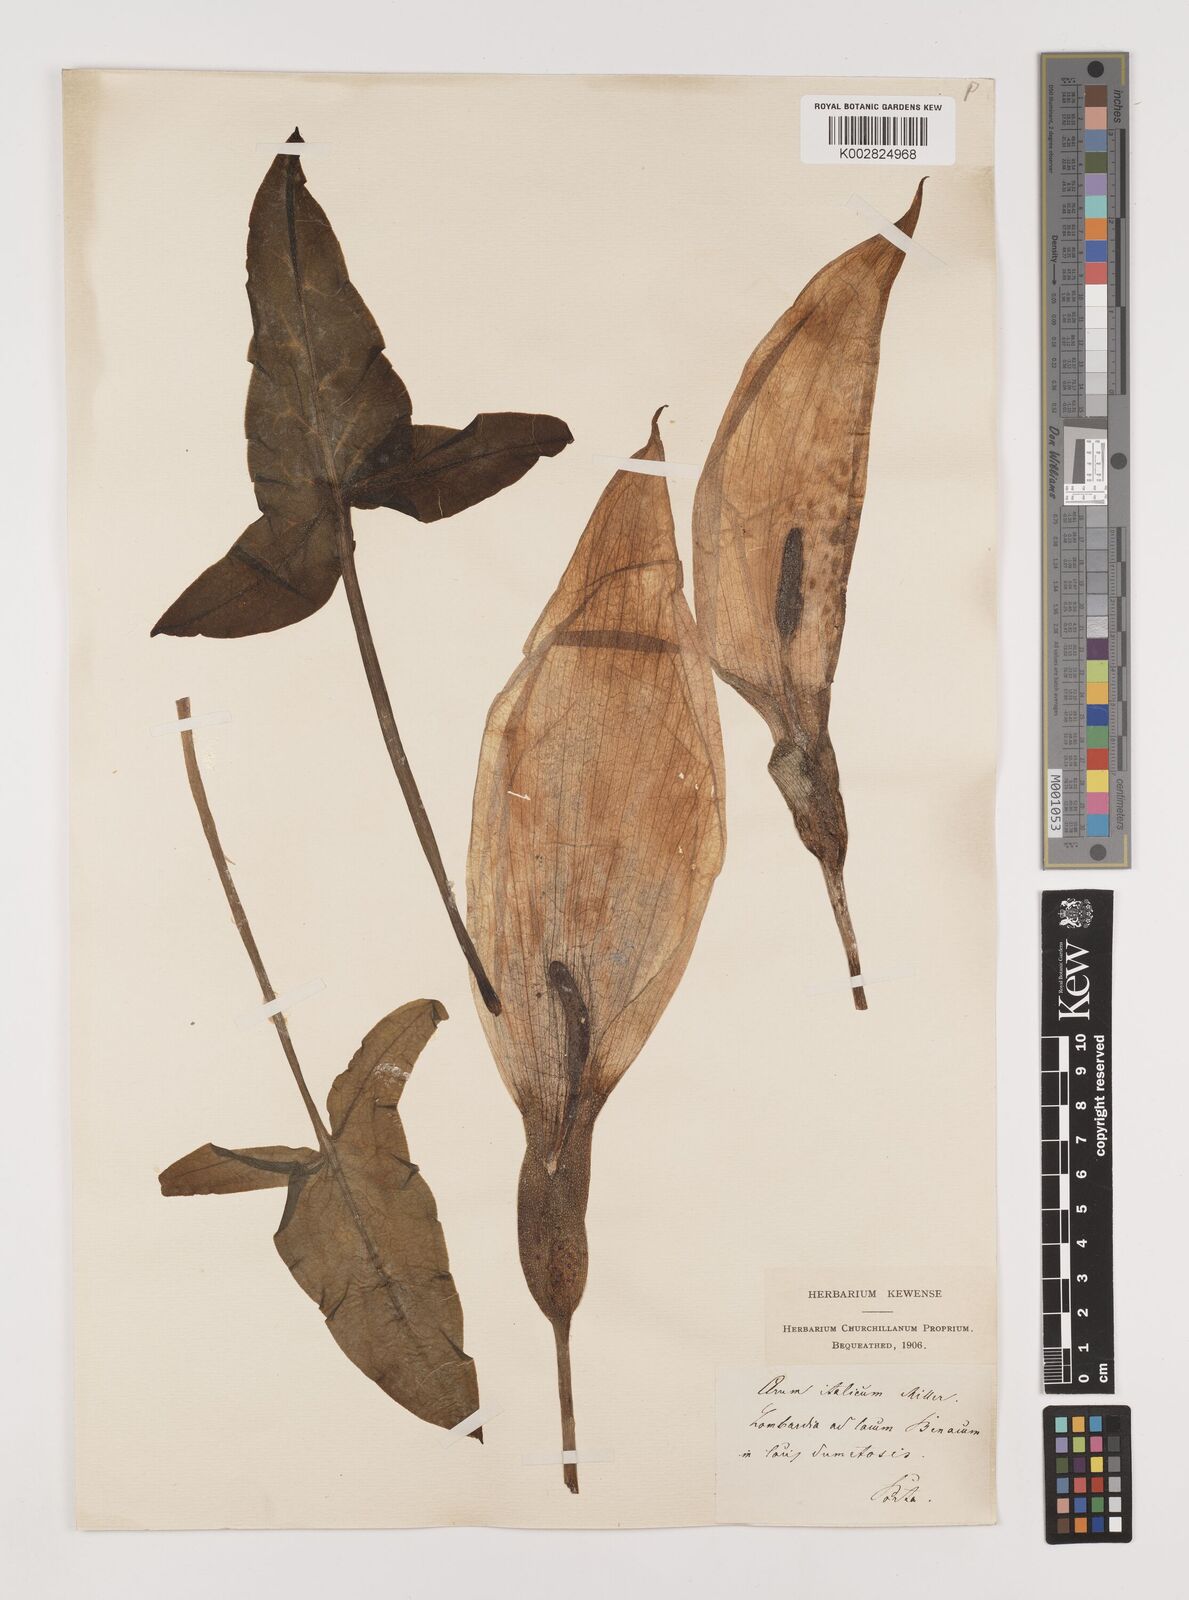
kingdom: Plantae
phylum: Tracheophyta
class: Liliopsida
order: Alismatales
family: Araceae
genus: Arum
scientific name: Arum italicum
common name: Italian lords-and-ladies
